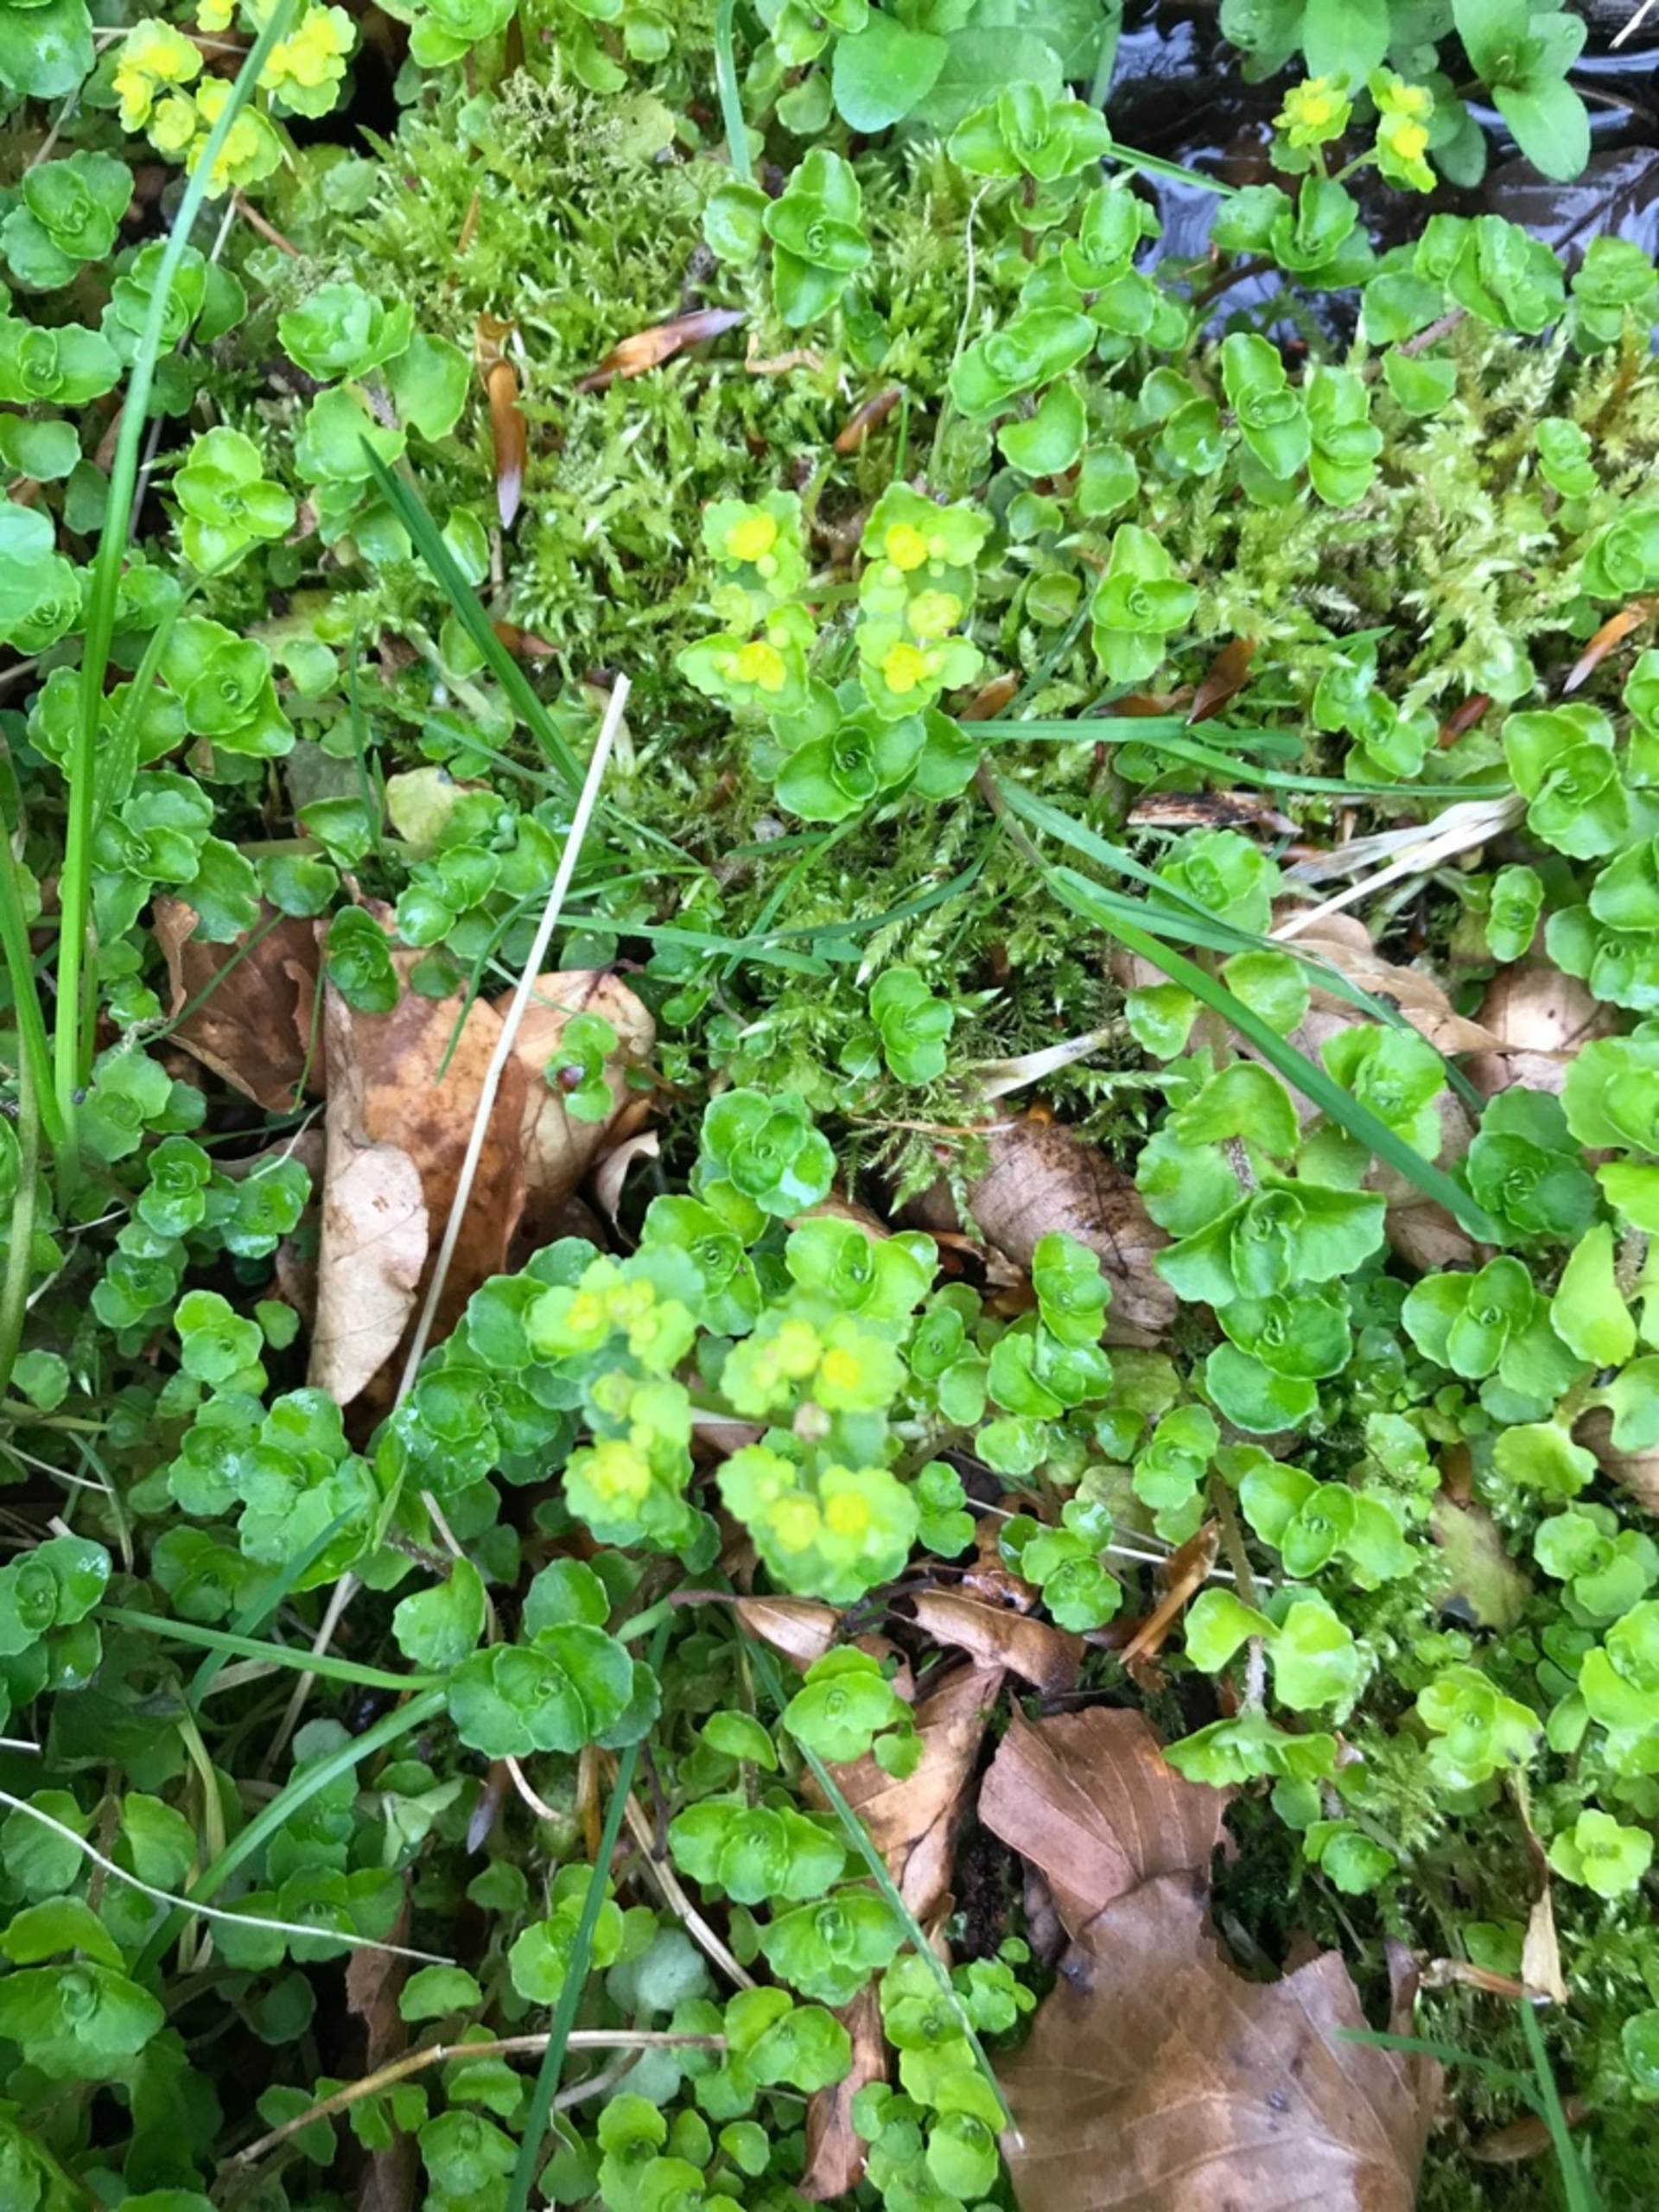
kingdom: Plantae
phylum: Tracheophyta
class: Magnoliopsida
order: Saxifragales
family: Saxifragaceae
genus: Chrysosplenium
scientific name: Chrysosplenium oppositifolium
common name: Småbladet milturt
